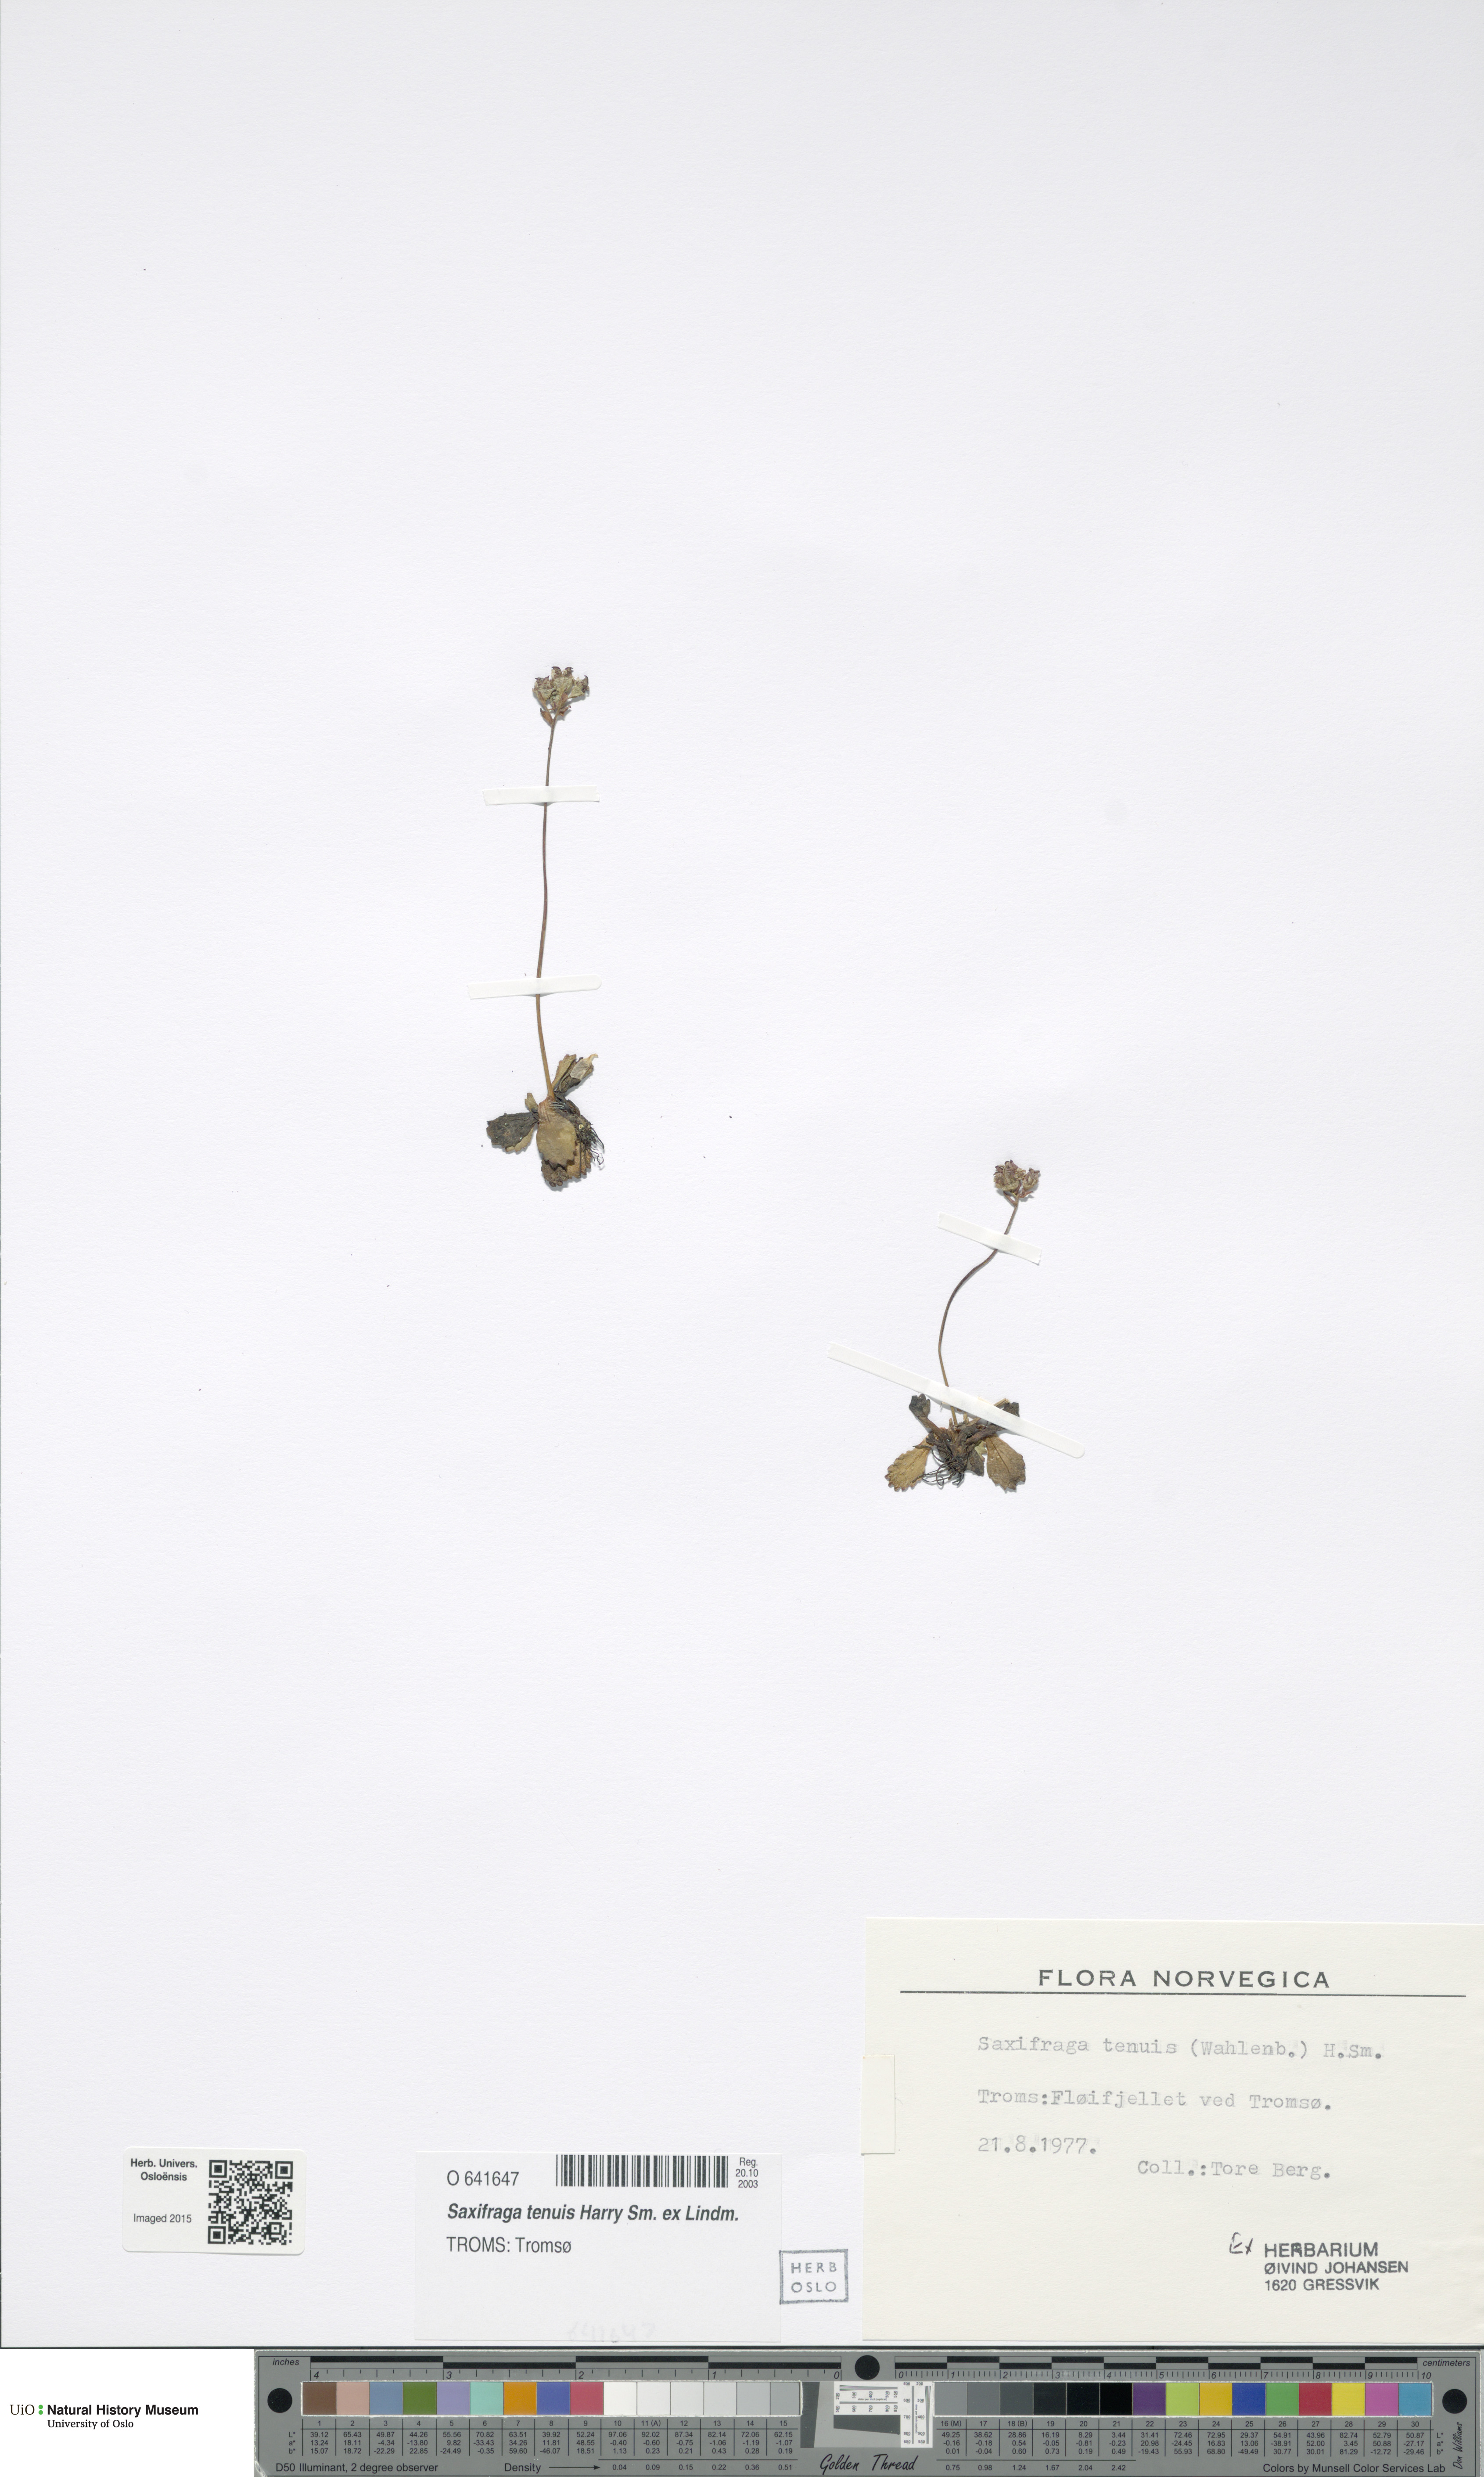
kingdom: Plantae
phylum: Tracheophyta
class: Magnoliopsida
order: Saxifragales
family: Saxifragaceae
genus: Micranthes
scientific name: Micranthes tenuis
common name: Ottertail pass saxifrage
